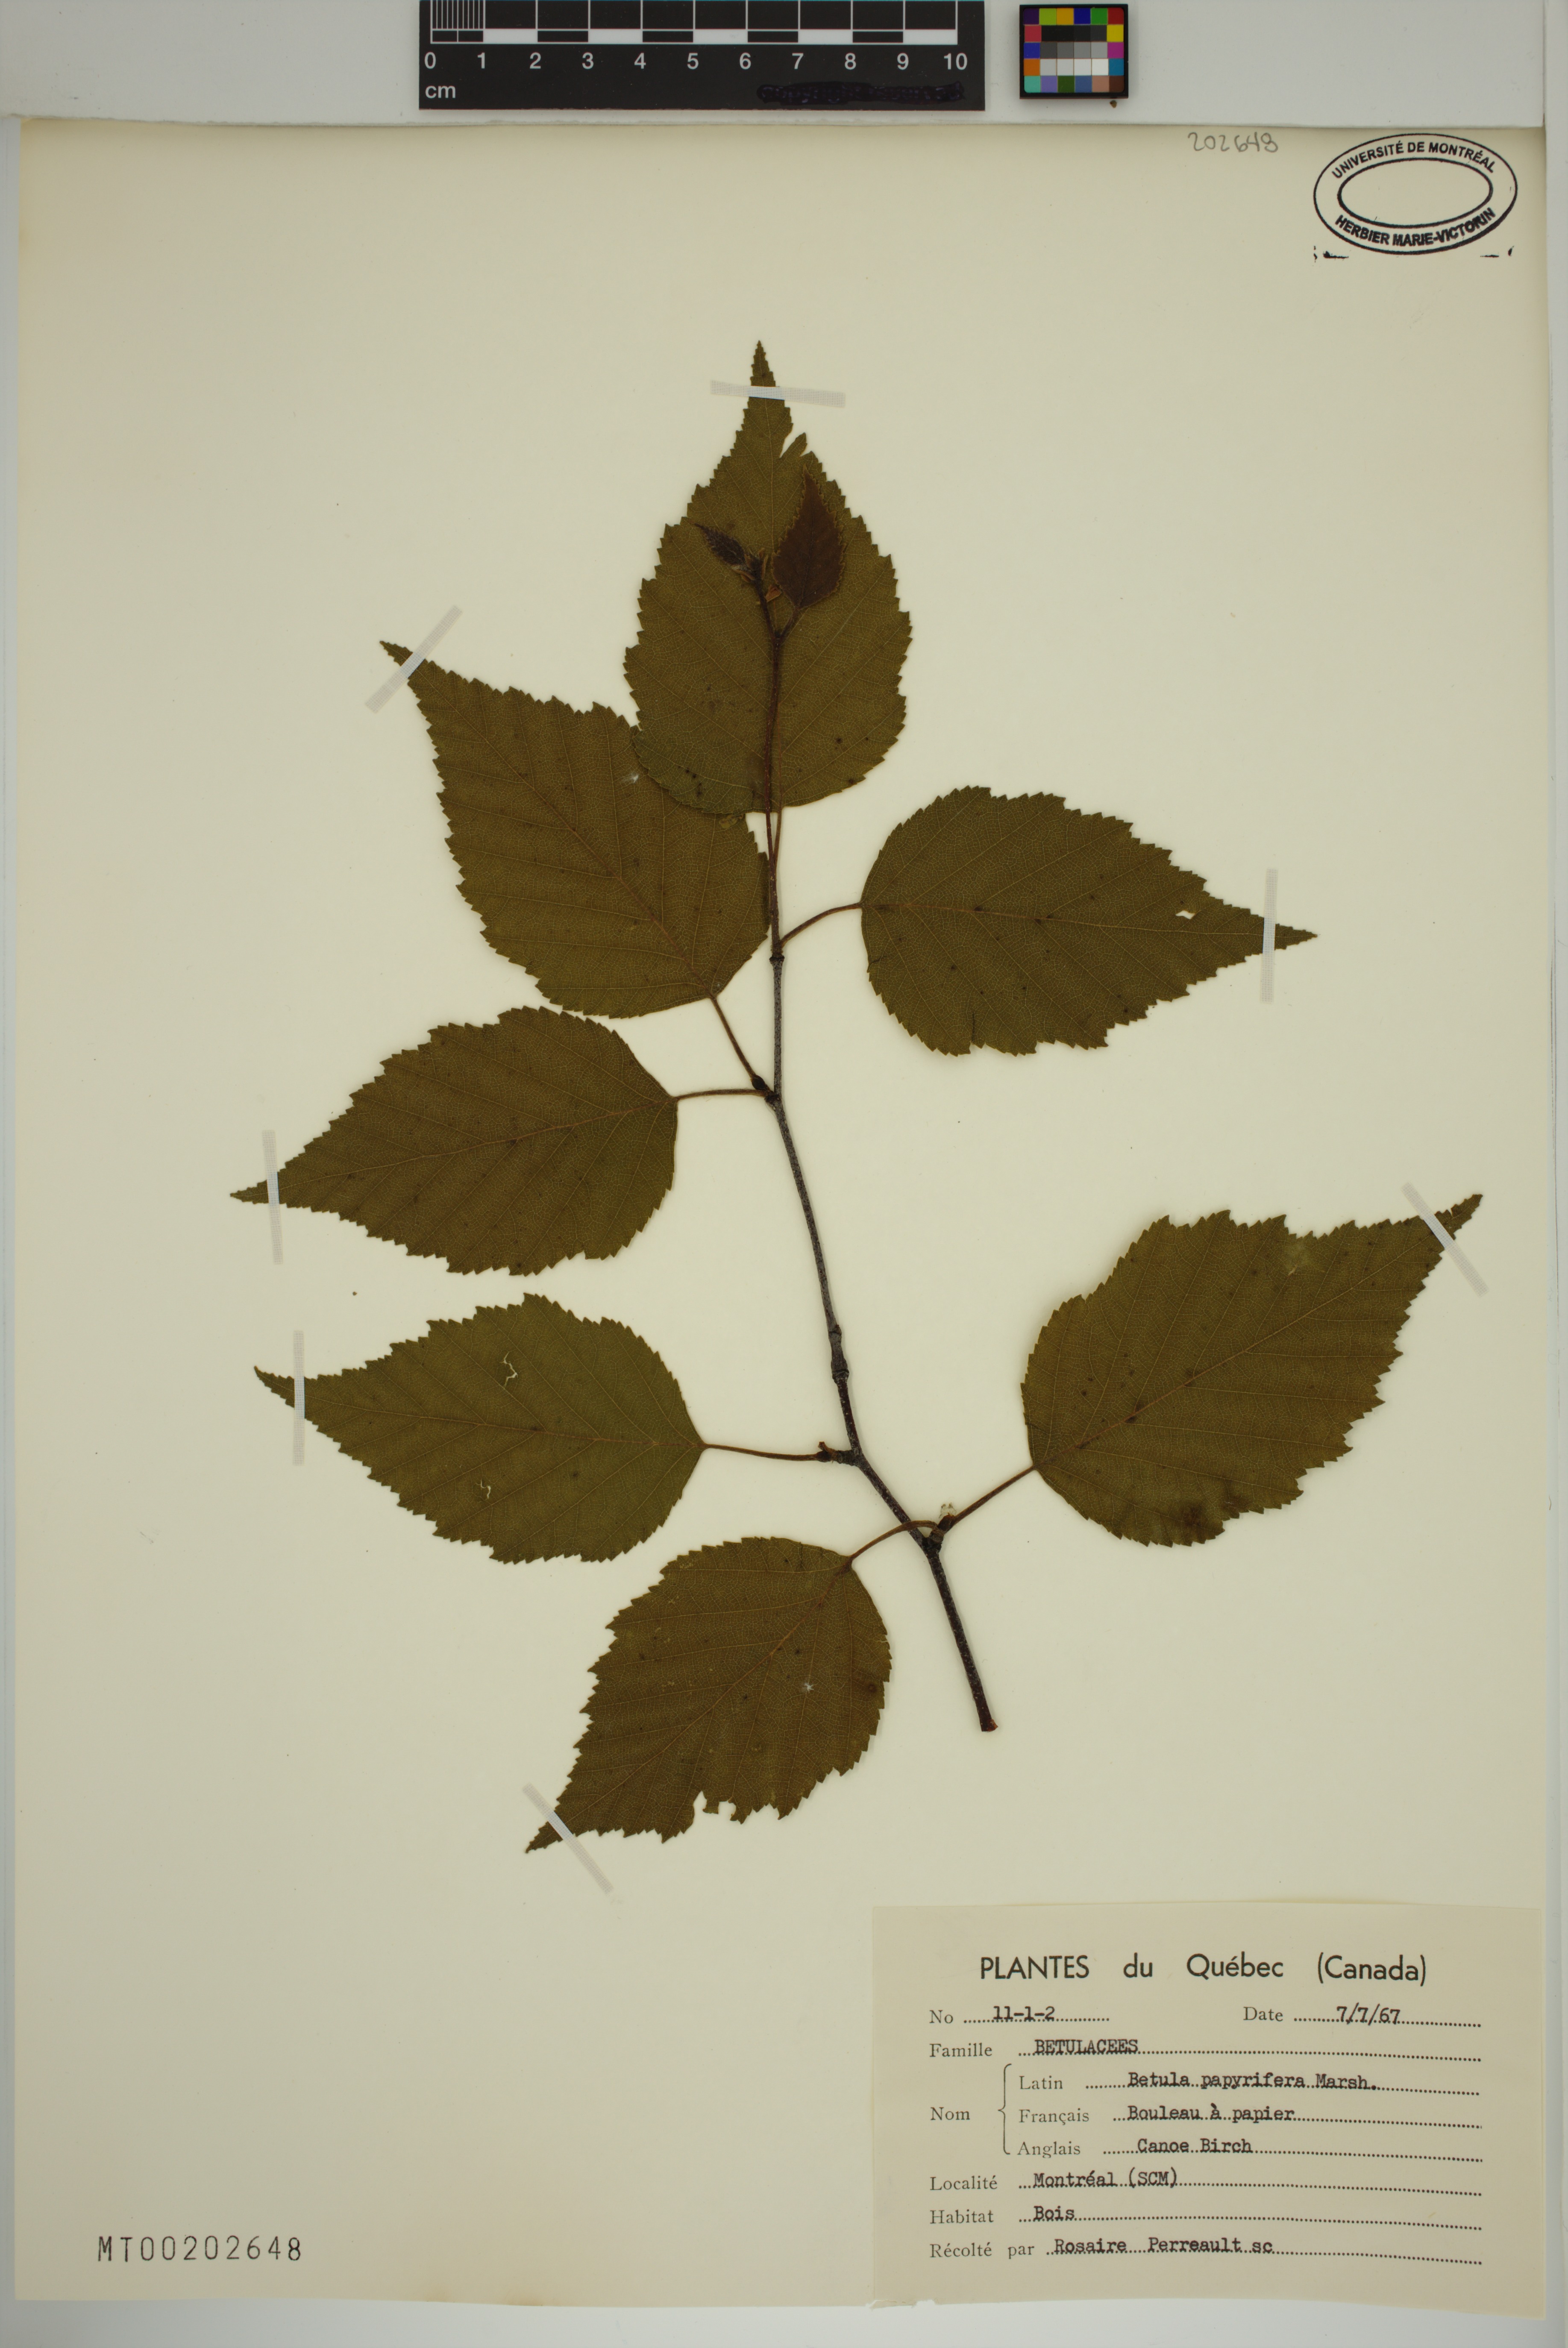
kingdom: Plantae
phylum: Tracheophyta
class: Magnoliopsida
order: Fagales
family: Betulaceae
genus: Betula
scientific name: Betula papyrifera
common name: Paper birch
